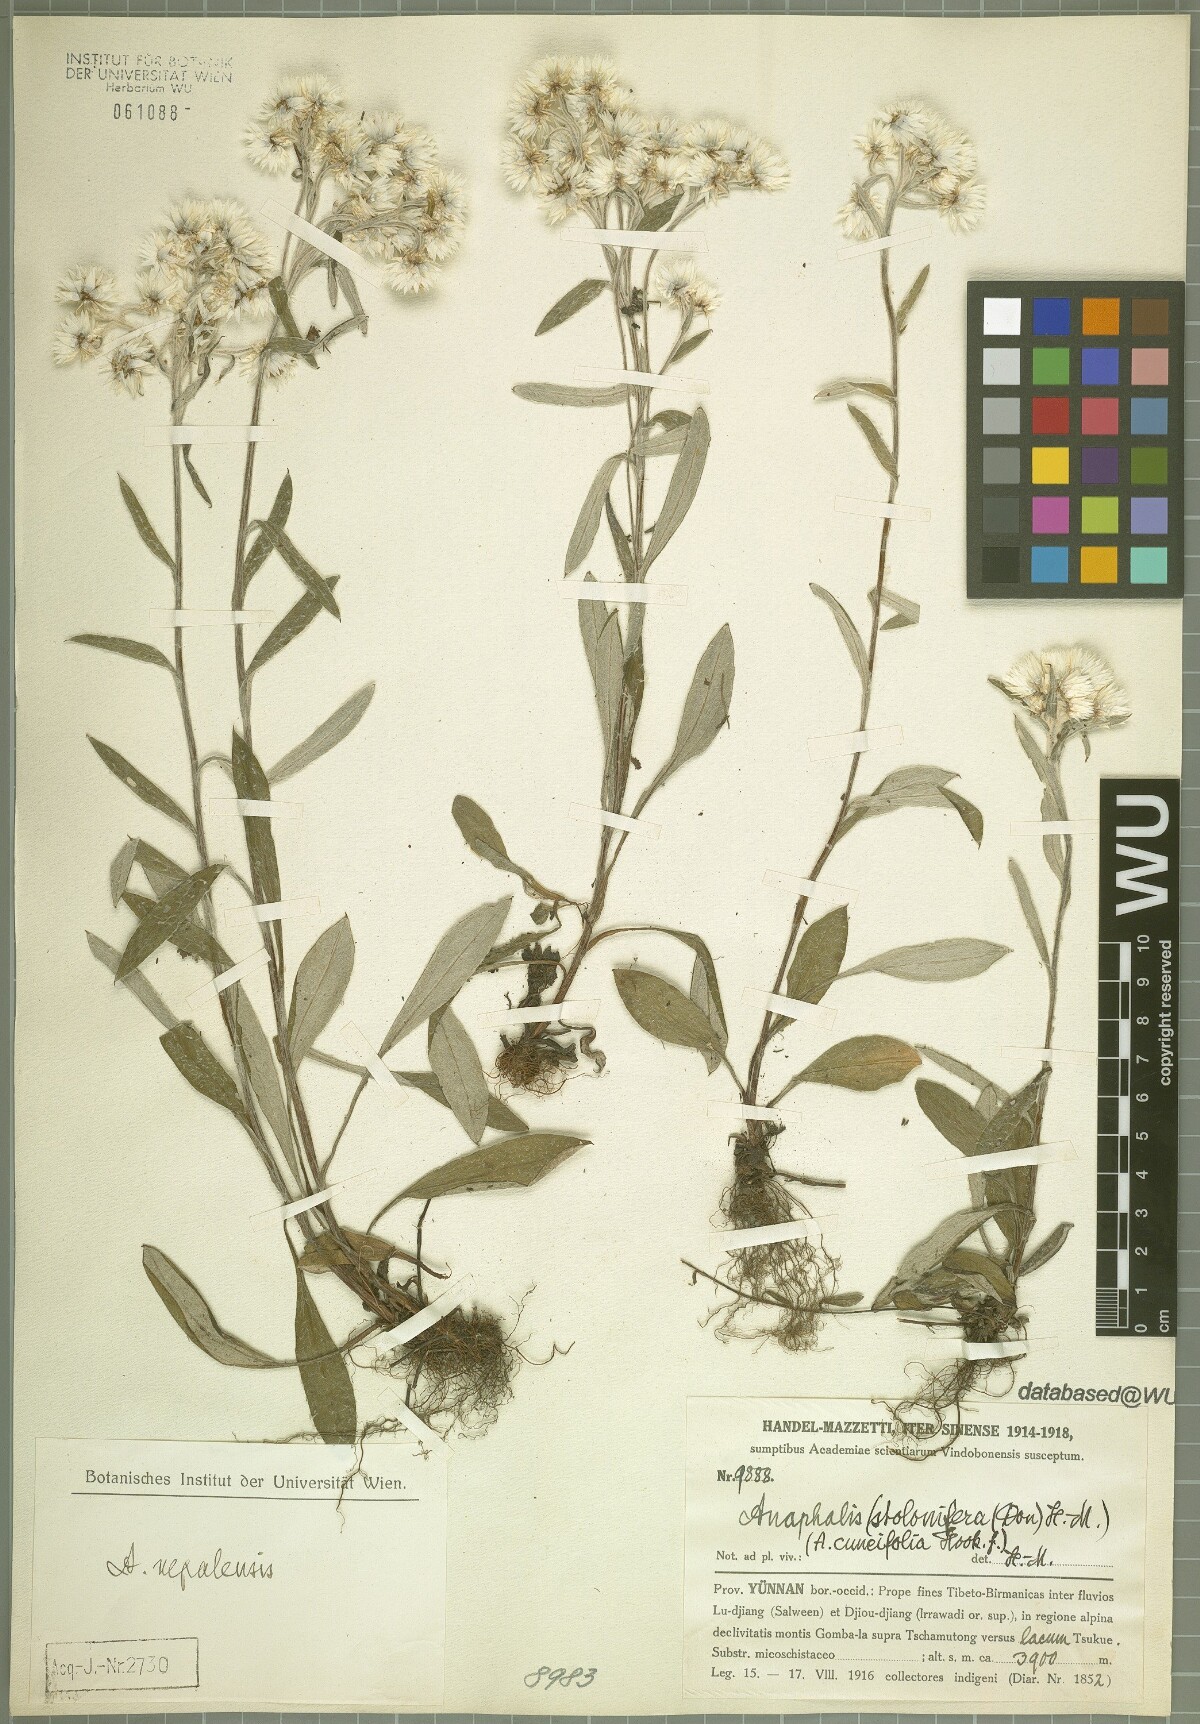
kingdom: Plantae
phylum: Tracheophyta
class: Magnoliopsida
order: Asterales
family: Asteraceae
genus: Anaphalis
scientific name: Anaphalis nepalensis
